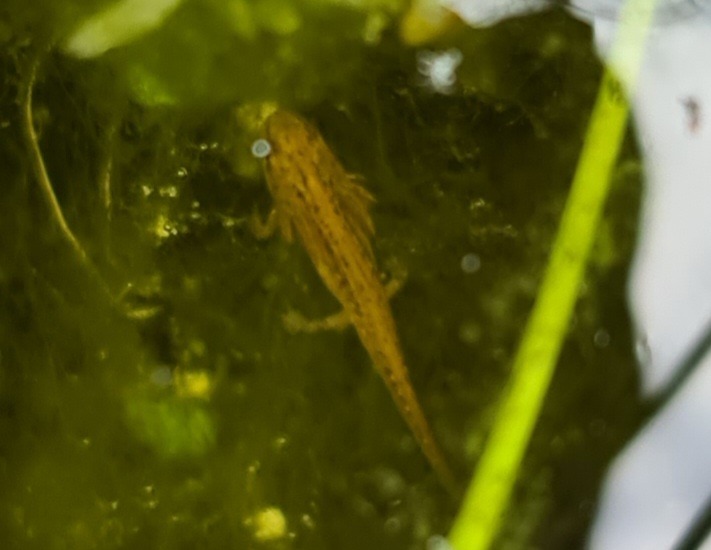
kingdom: Animalia
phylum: Chordata
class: Amphibia
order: Caudata
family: Salamandridae
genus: Lissotriton
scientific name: Lissotriton vulgaris
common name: Lille vandsalamander
